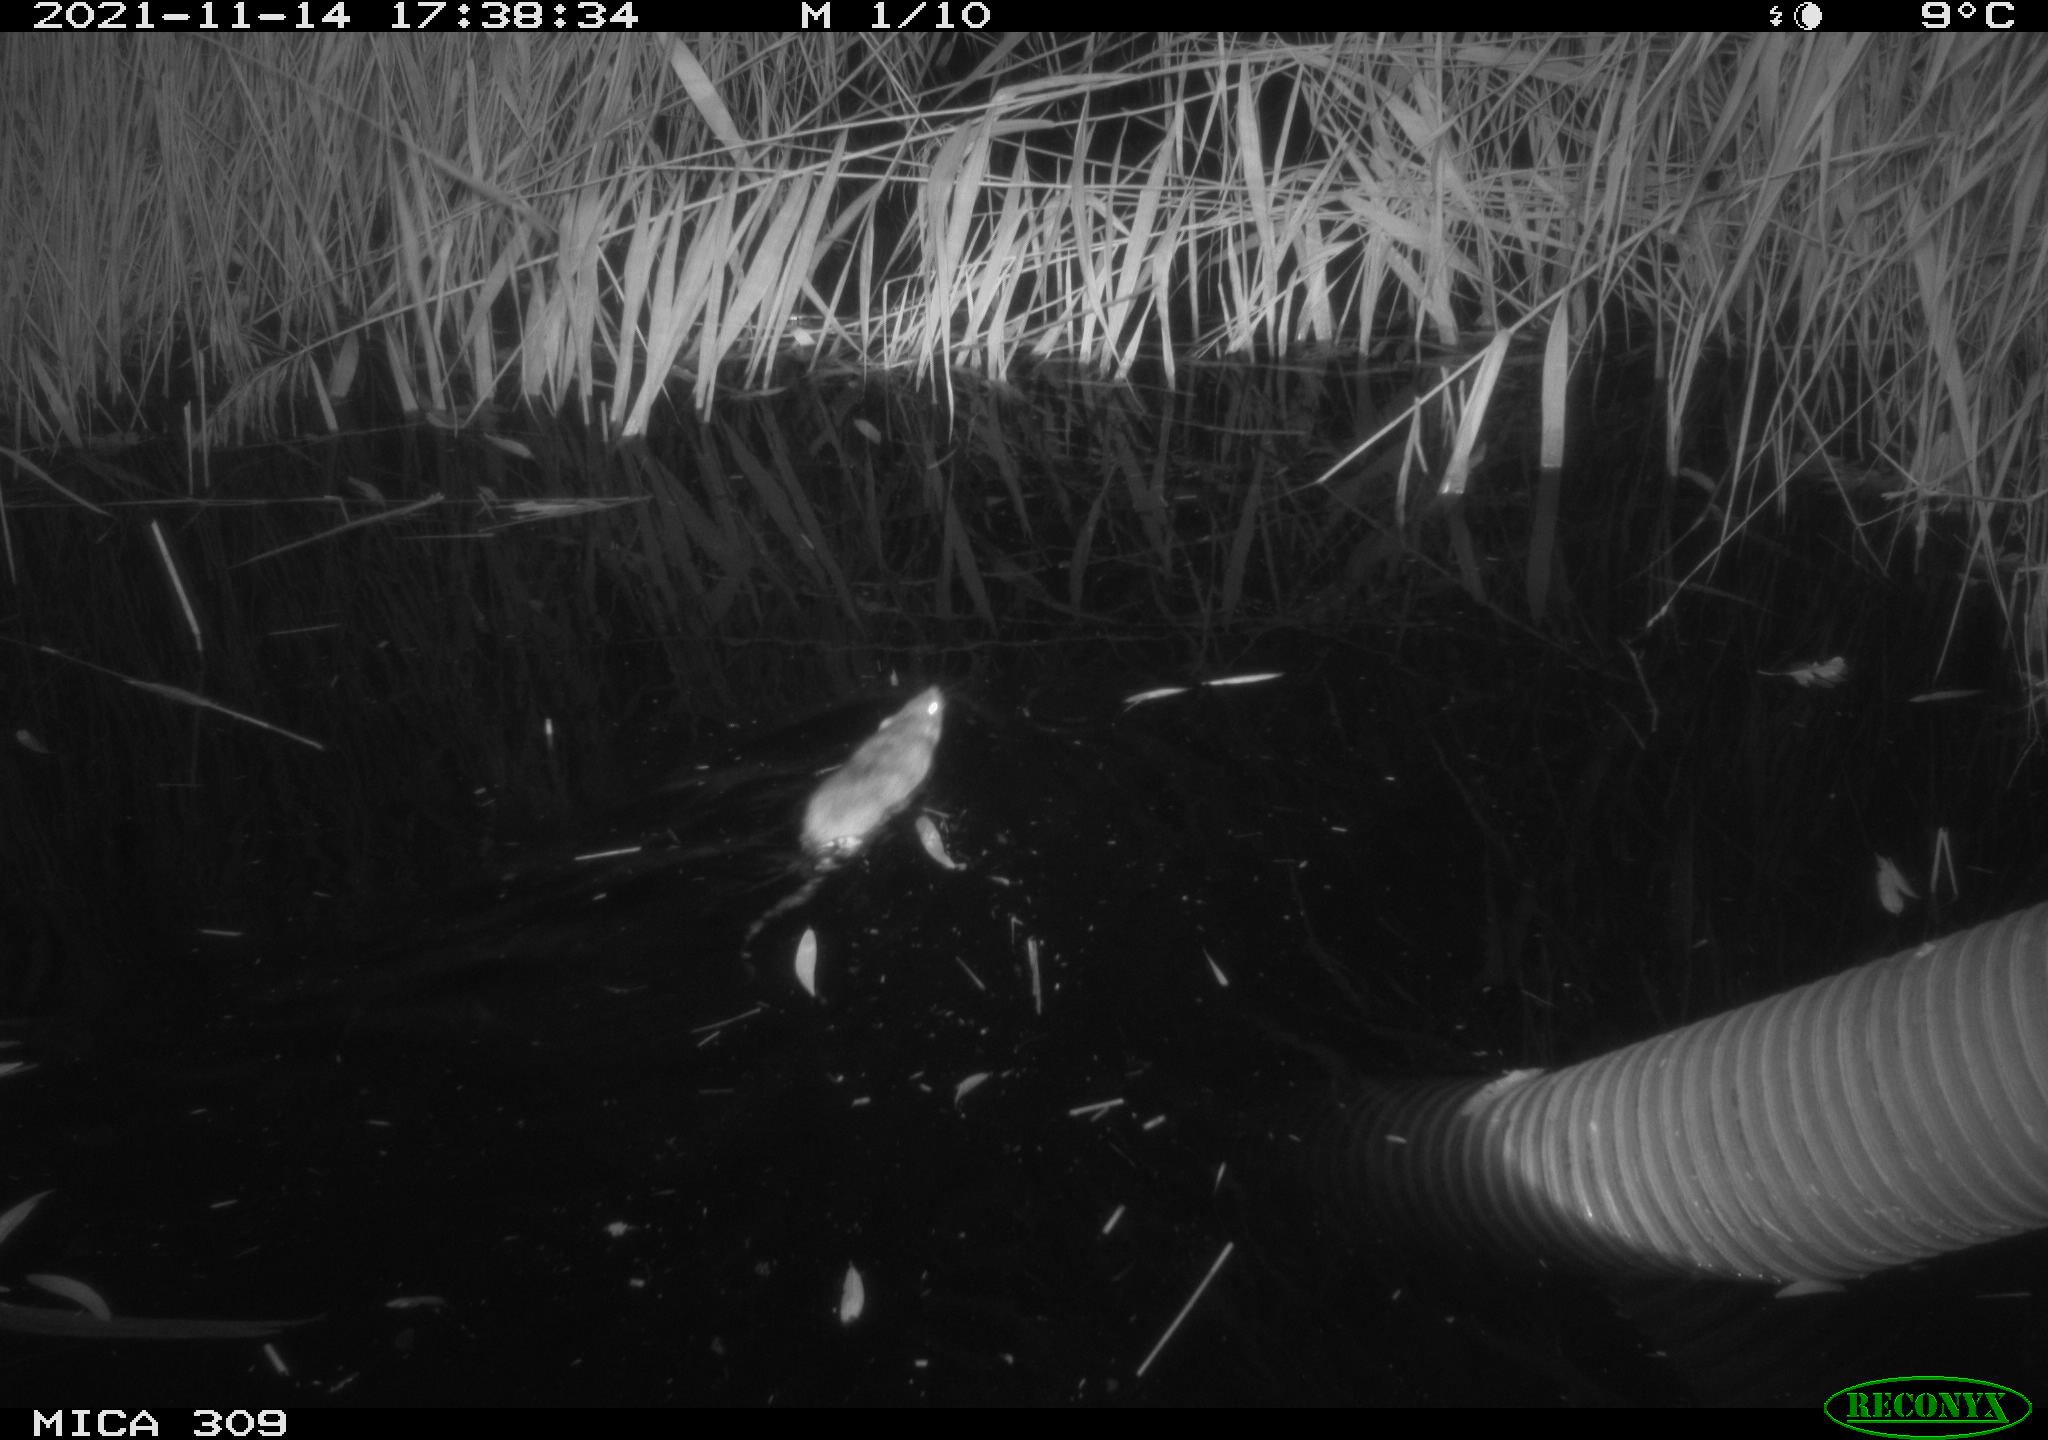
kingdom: Animalia
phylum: Chordata
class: Mammalia
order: Rodentia
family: Muridae
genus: Rattus
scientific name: Rattus norvegicus
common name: Brown rat
